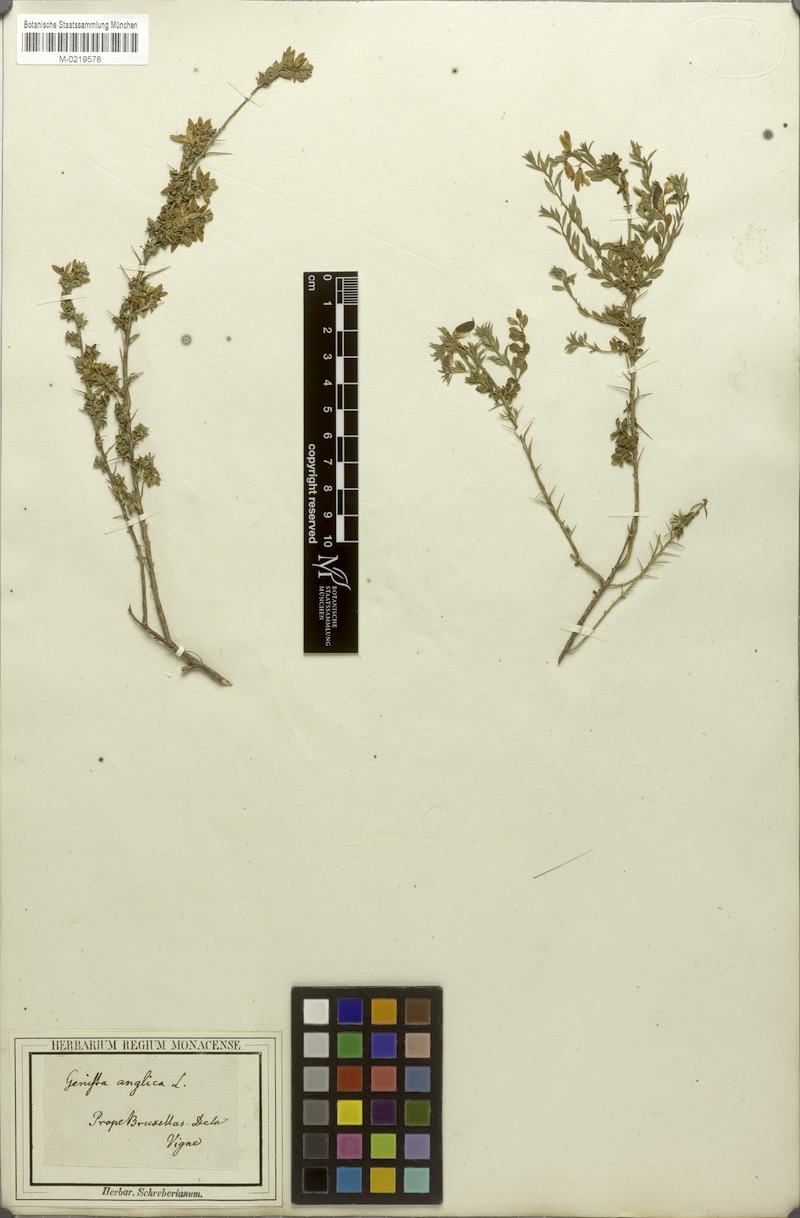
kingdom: Plantae
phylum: Tracheophyta
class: Magnoliopsida
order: Fabales
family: Fabaceae
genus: Genista
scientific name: Genista anglica
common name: Petty whin
